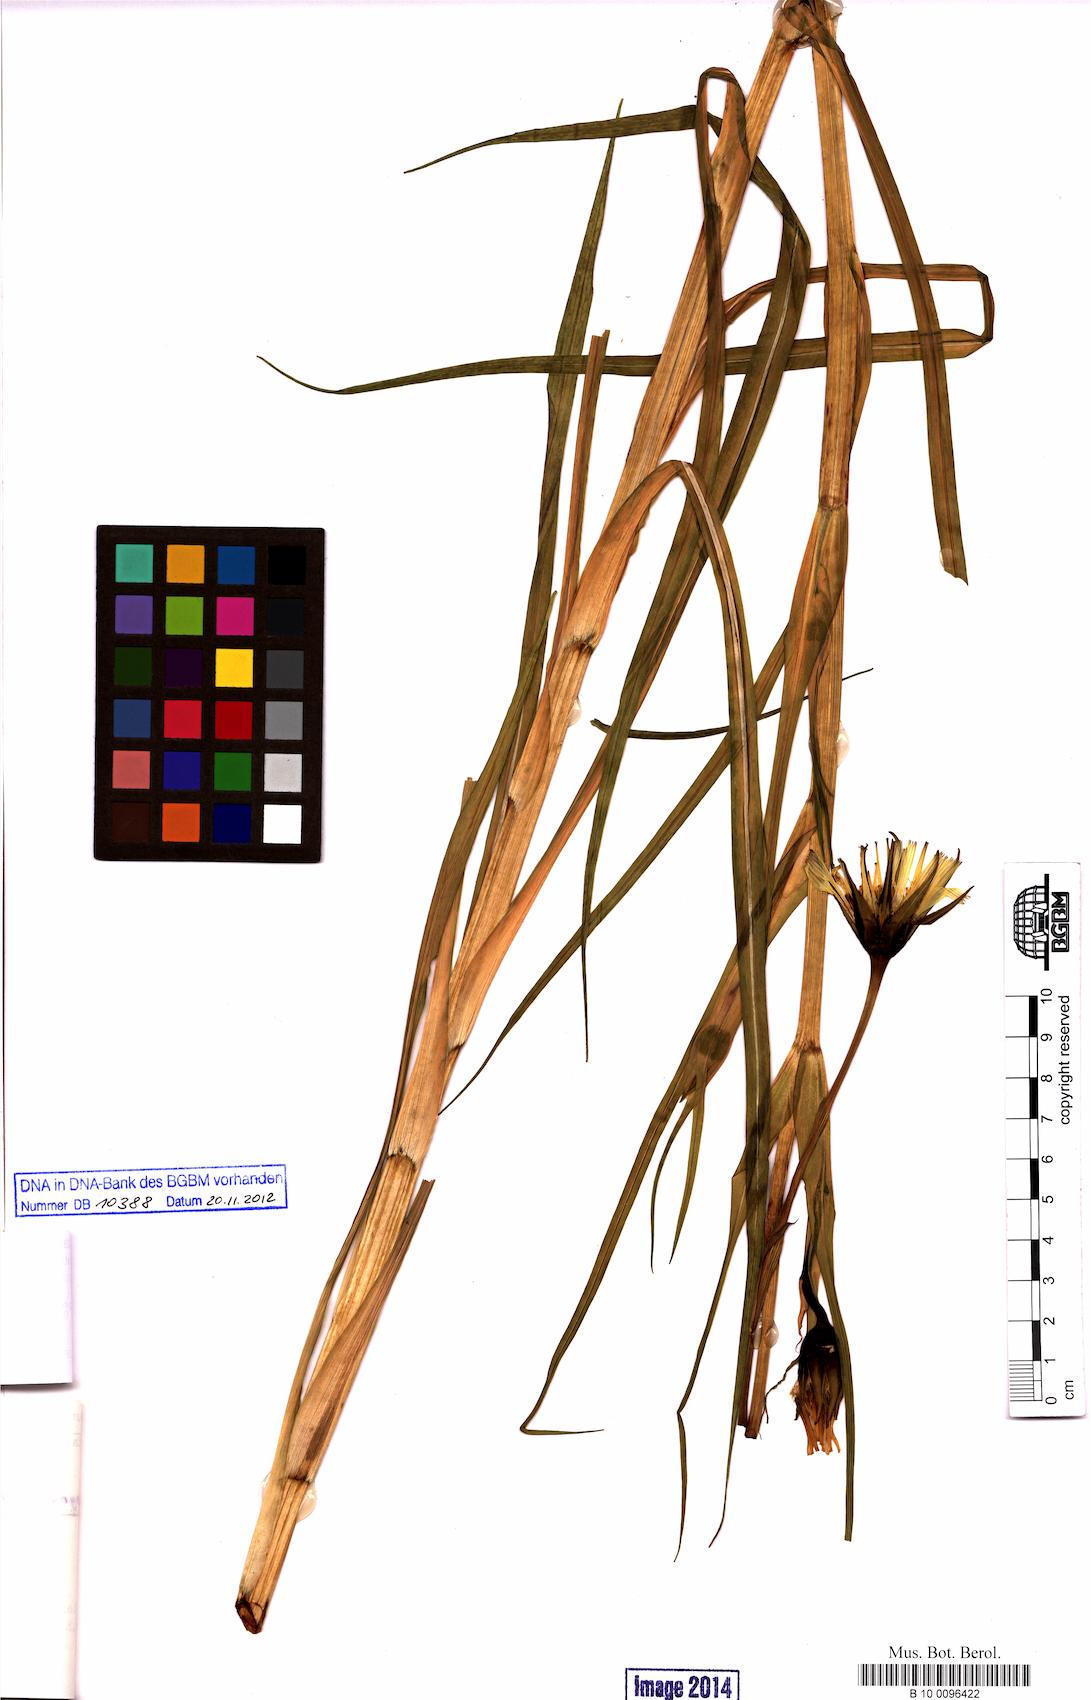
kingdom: Plantae
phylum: Tracheophyta
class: Magnoliopsida
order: Asterales
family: Asteraceae
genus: Tragopogon
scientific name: Tragopogon pratensis
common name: Goat's-beard
